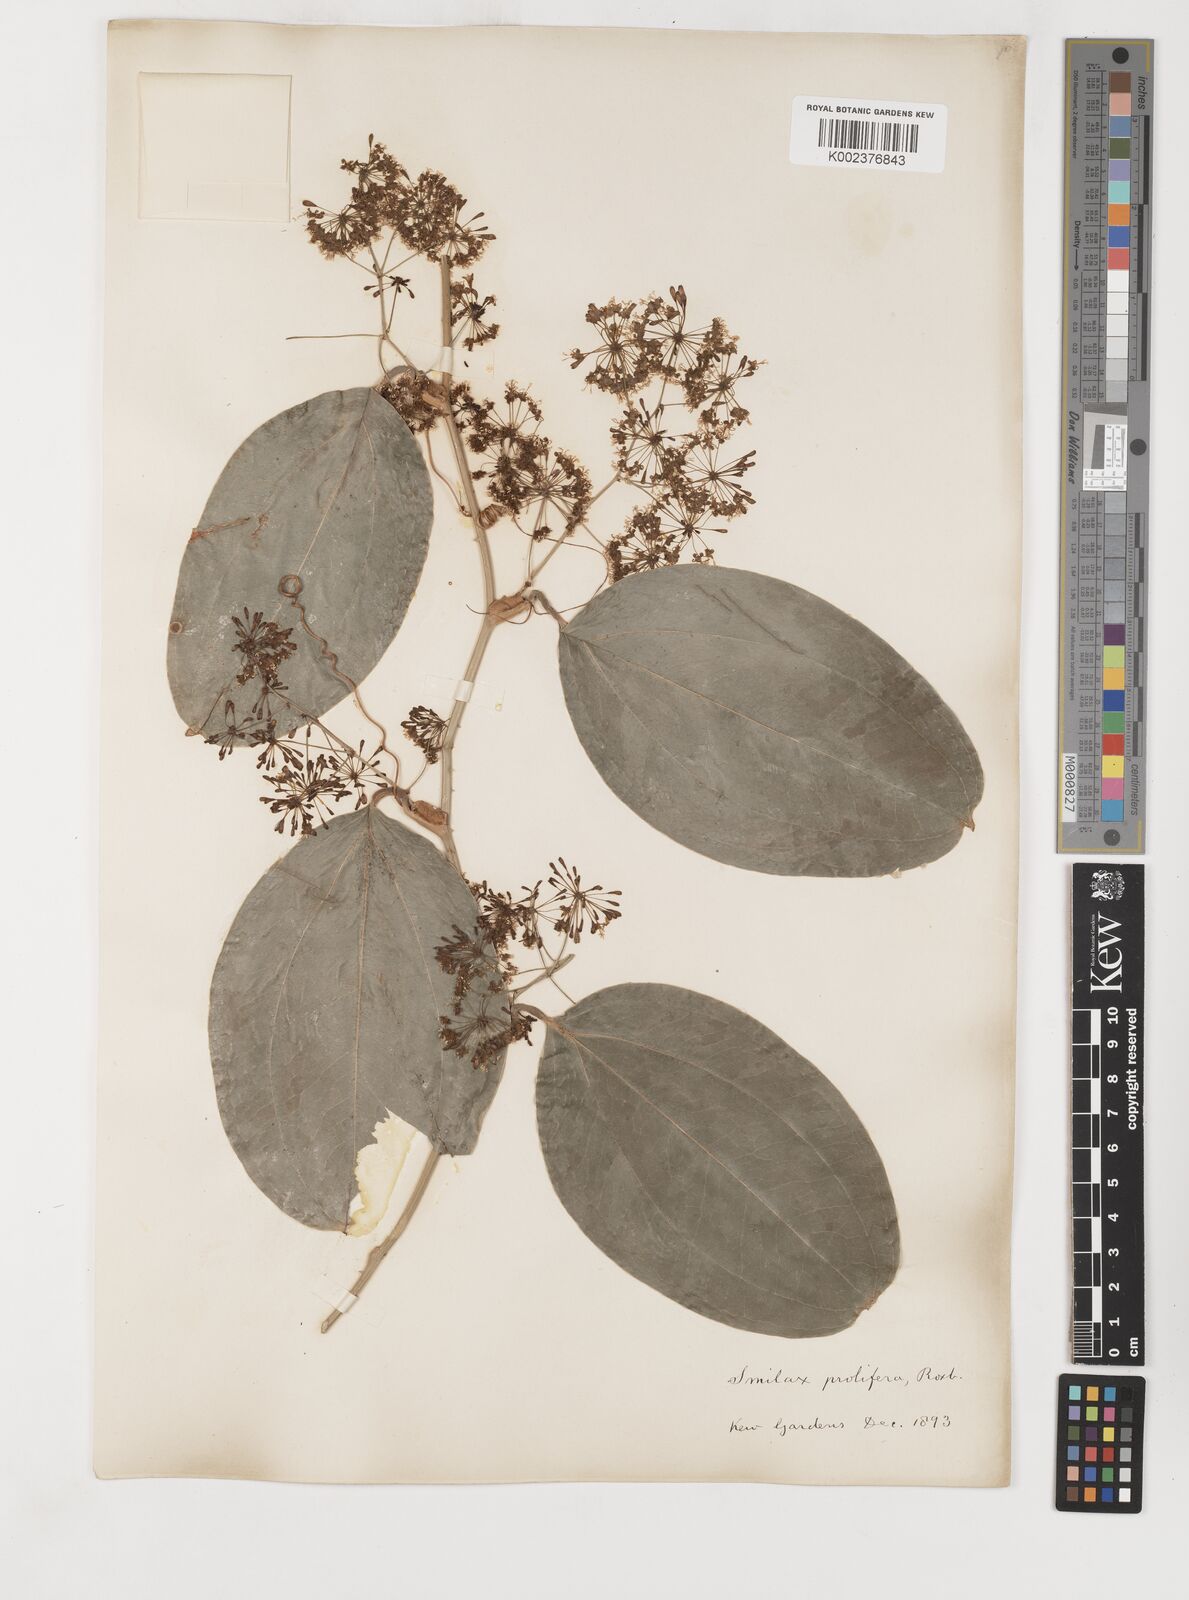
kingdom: Plantae
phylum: Tracheophyta
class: Liliopsida
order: Liliales
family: Smilacaceae
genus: Smilax
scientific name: Smilax prolifera
